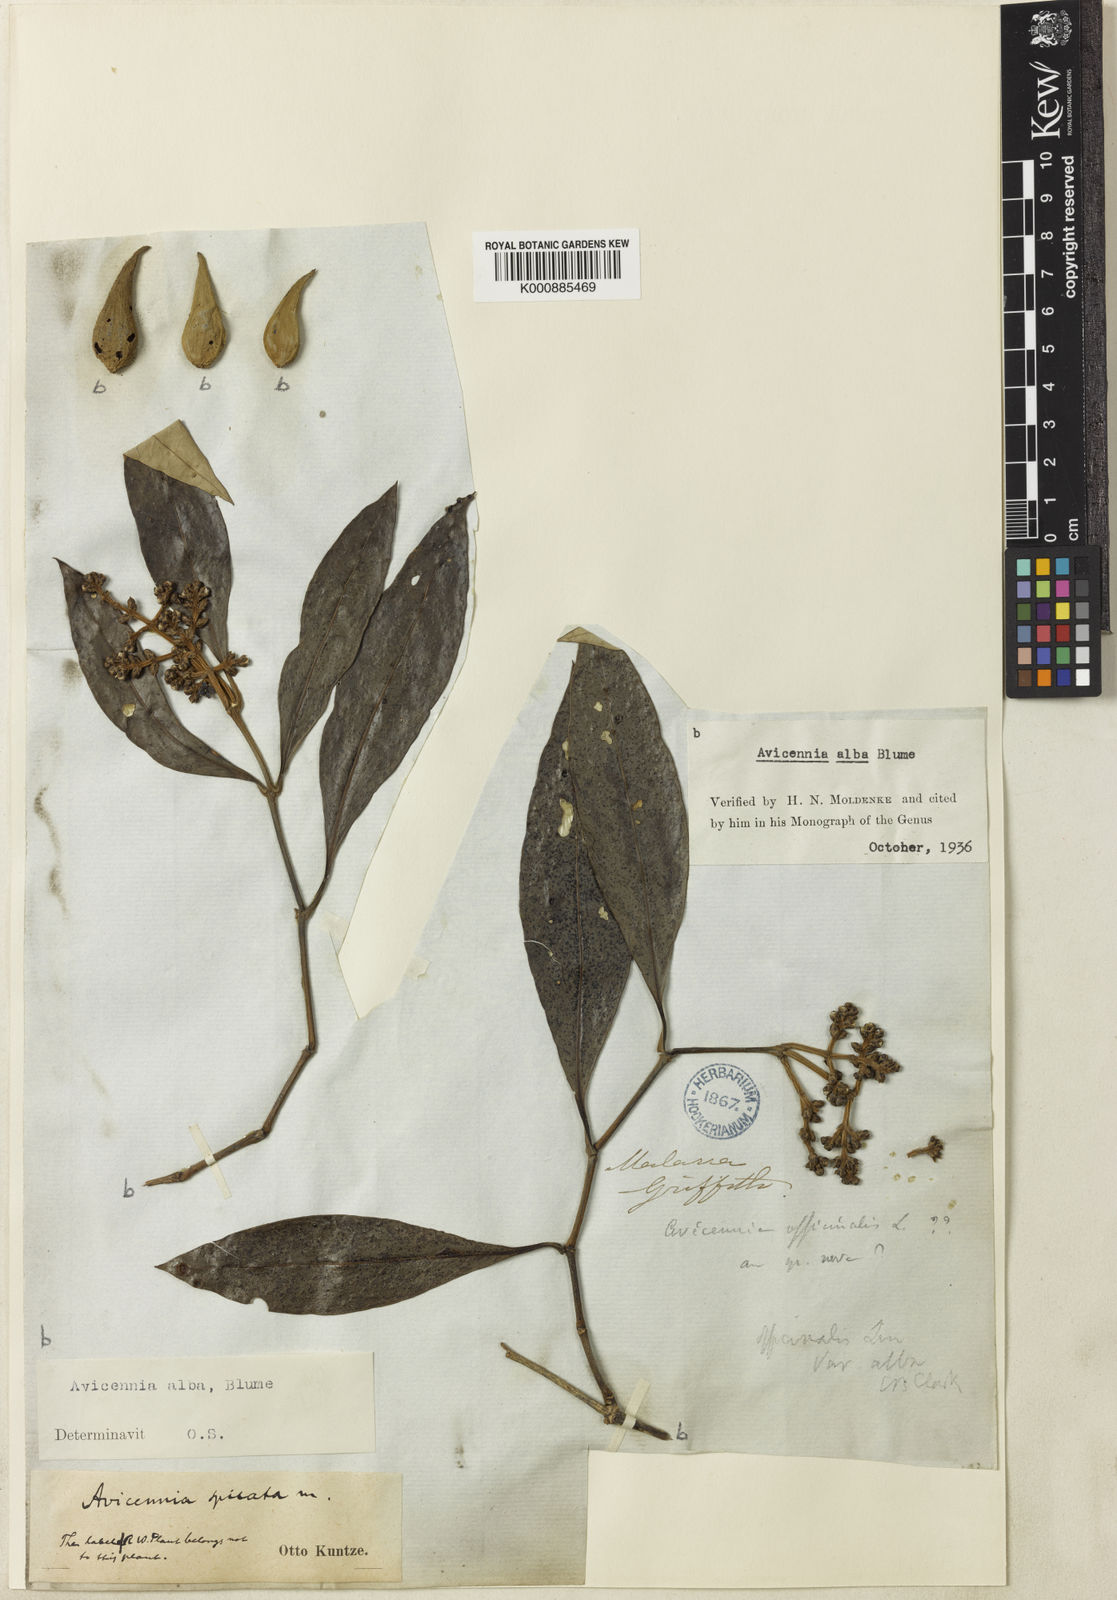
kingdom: Plantae
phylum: Tracheophyta
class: Magnoliopsida
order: Lamiales
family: Acanthaceae
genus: Avicennia
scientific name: Avicennia alba
